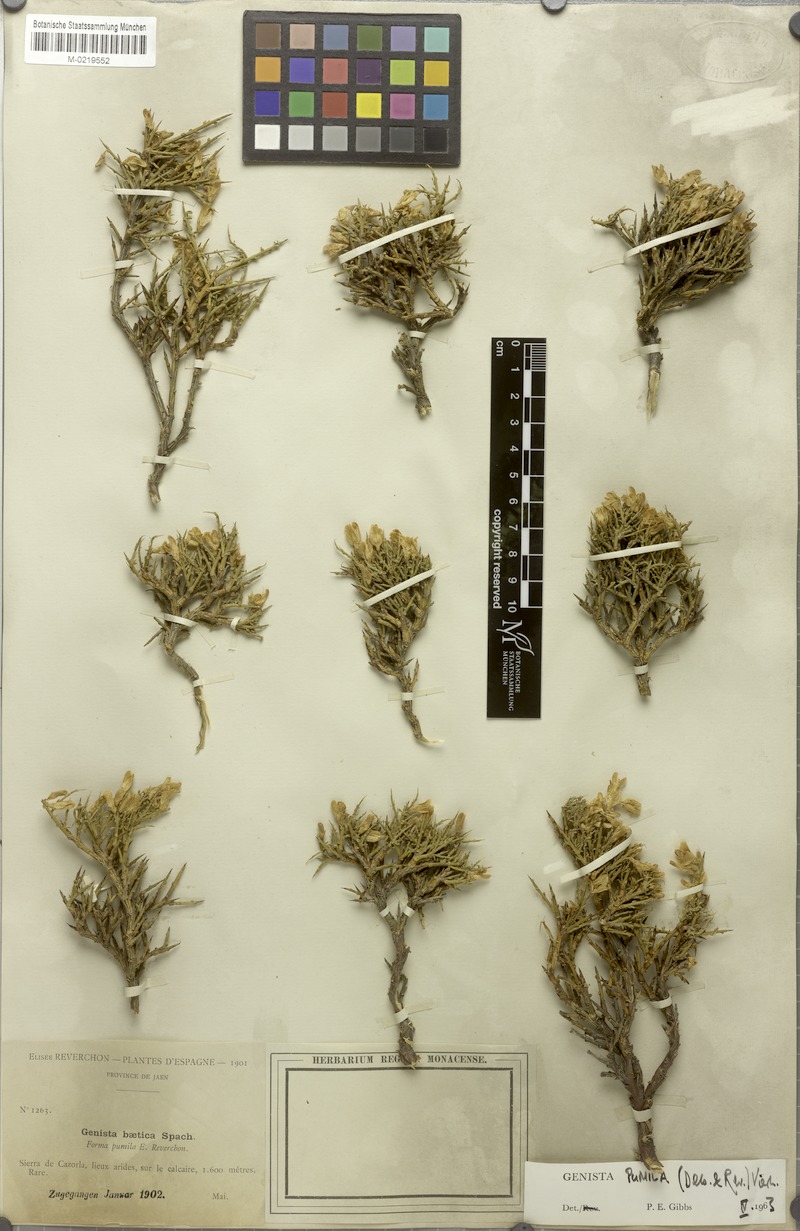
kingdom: Plantae
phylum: Tracheophyta
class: Magnoliopsida
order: Fabales
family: Fabaceae
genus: Genista
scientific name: Genista versicolor
